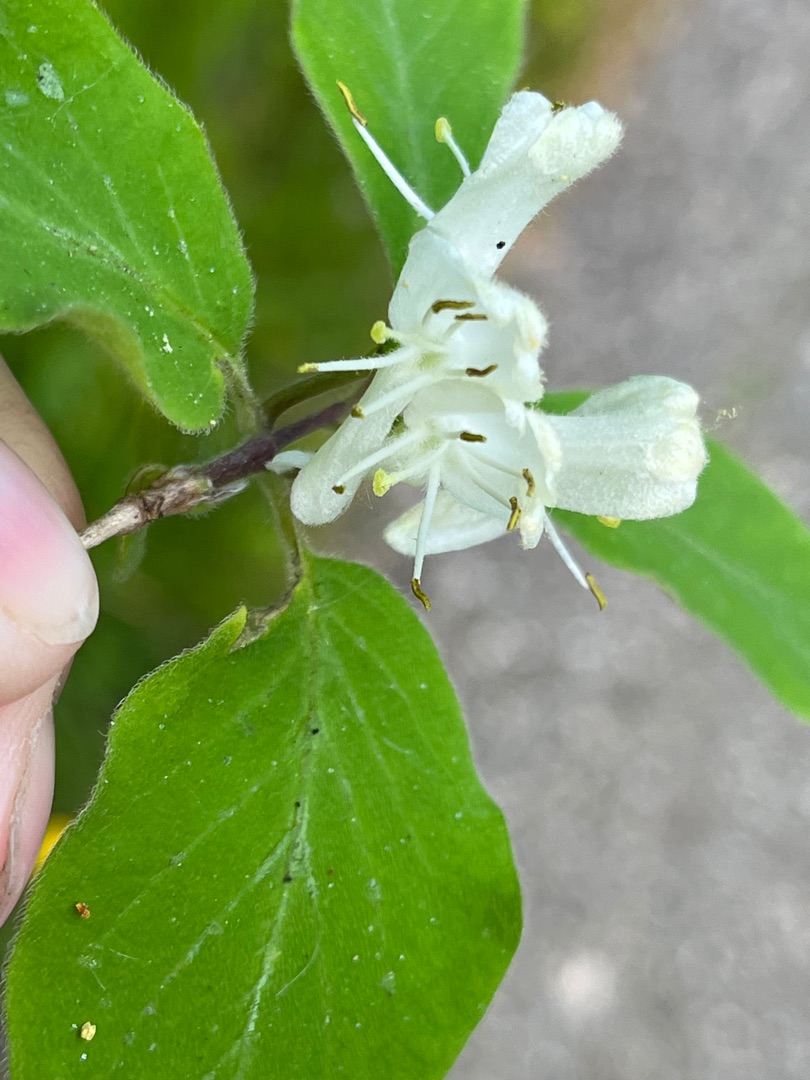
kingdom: Plantae
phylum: Tracheophyta
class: Magnoliopsida
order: Dipsacales
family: Caprifoliaceae
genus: Lonicera
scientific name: Lonicera xylosteum
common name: Dunet gedeblad
